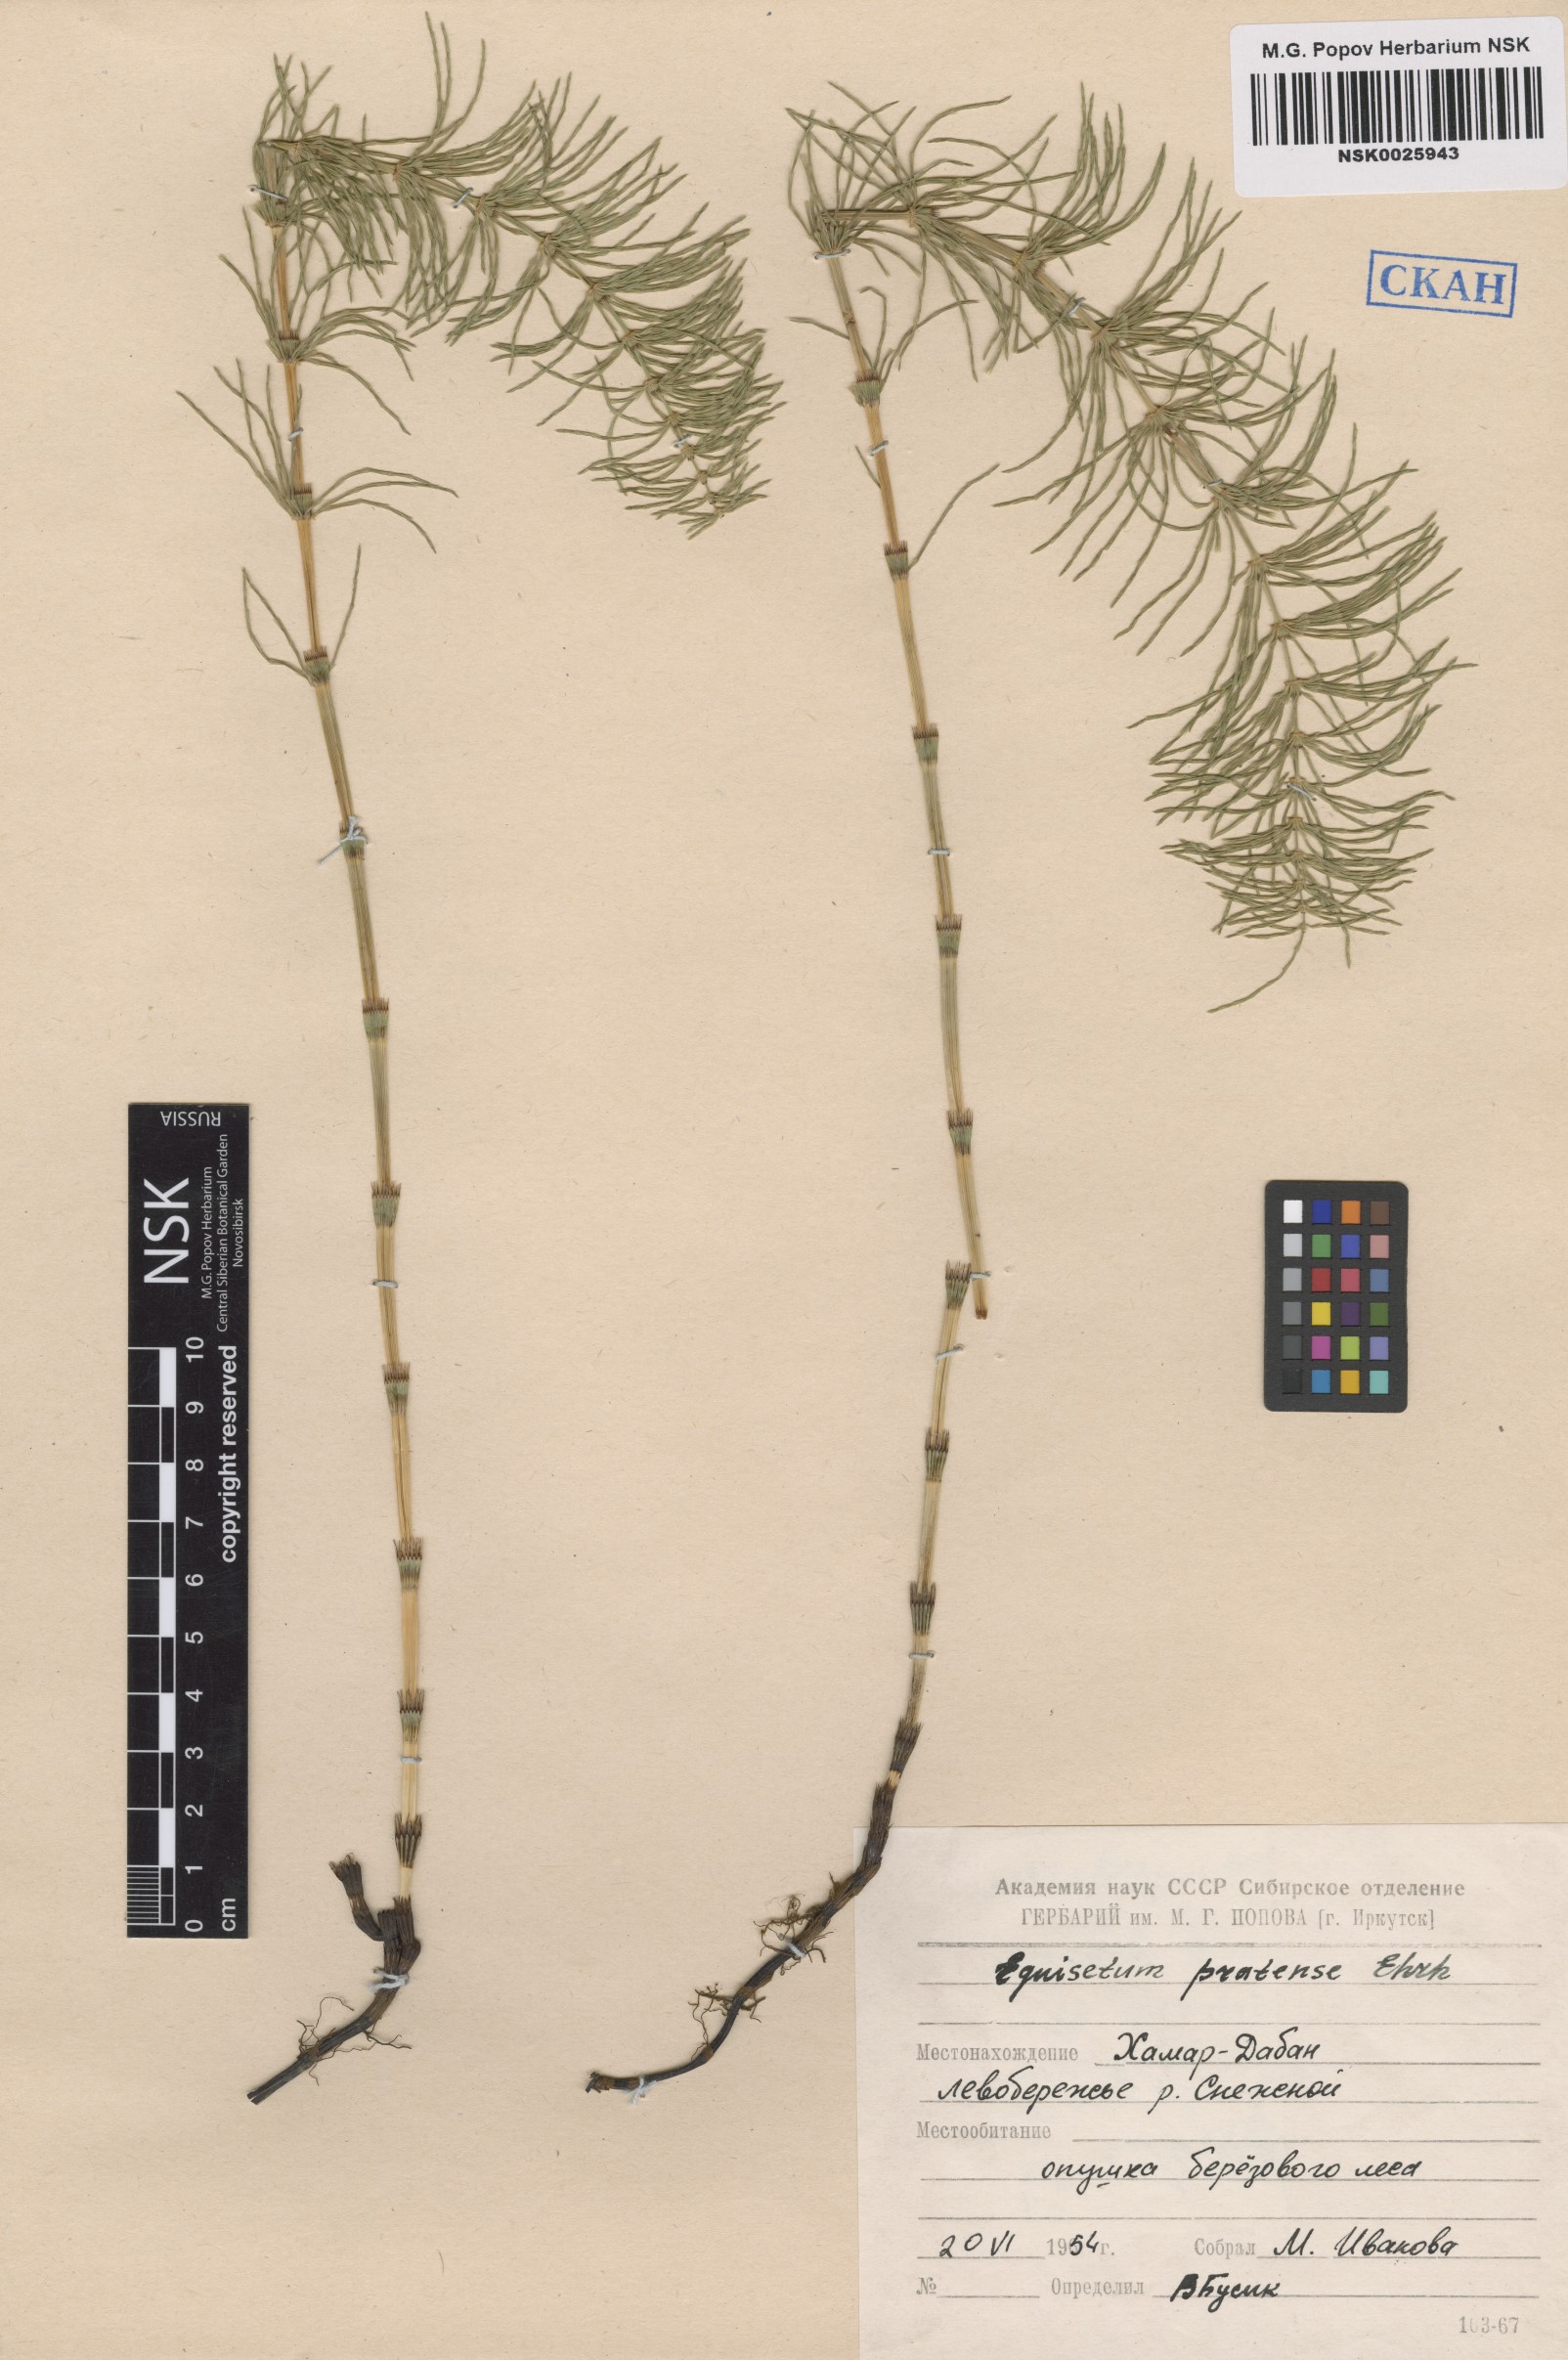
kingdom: Plantae
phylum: Tracheophyta
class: Polypodiopsida
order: Equisetales
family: Equisetaceae
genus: Equisetum
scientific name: Equisetum pratense
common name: Meadow horsetail
